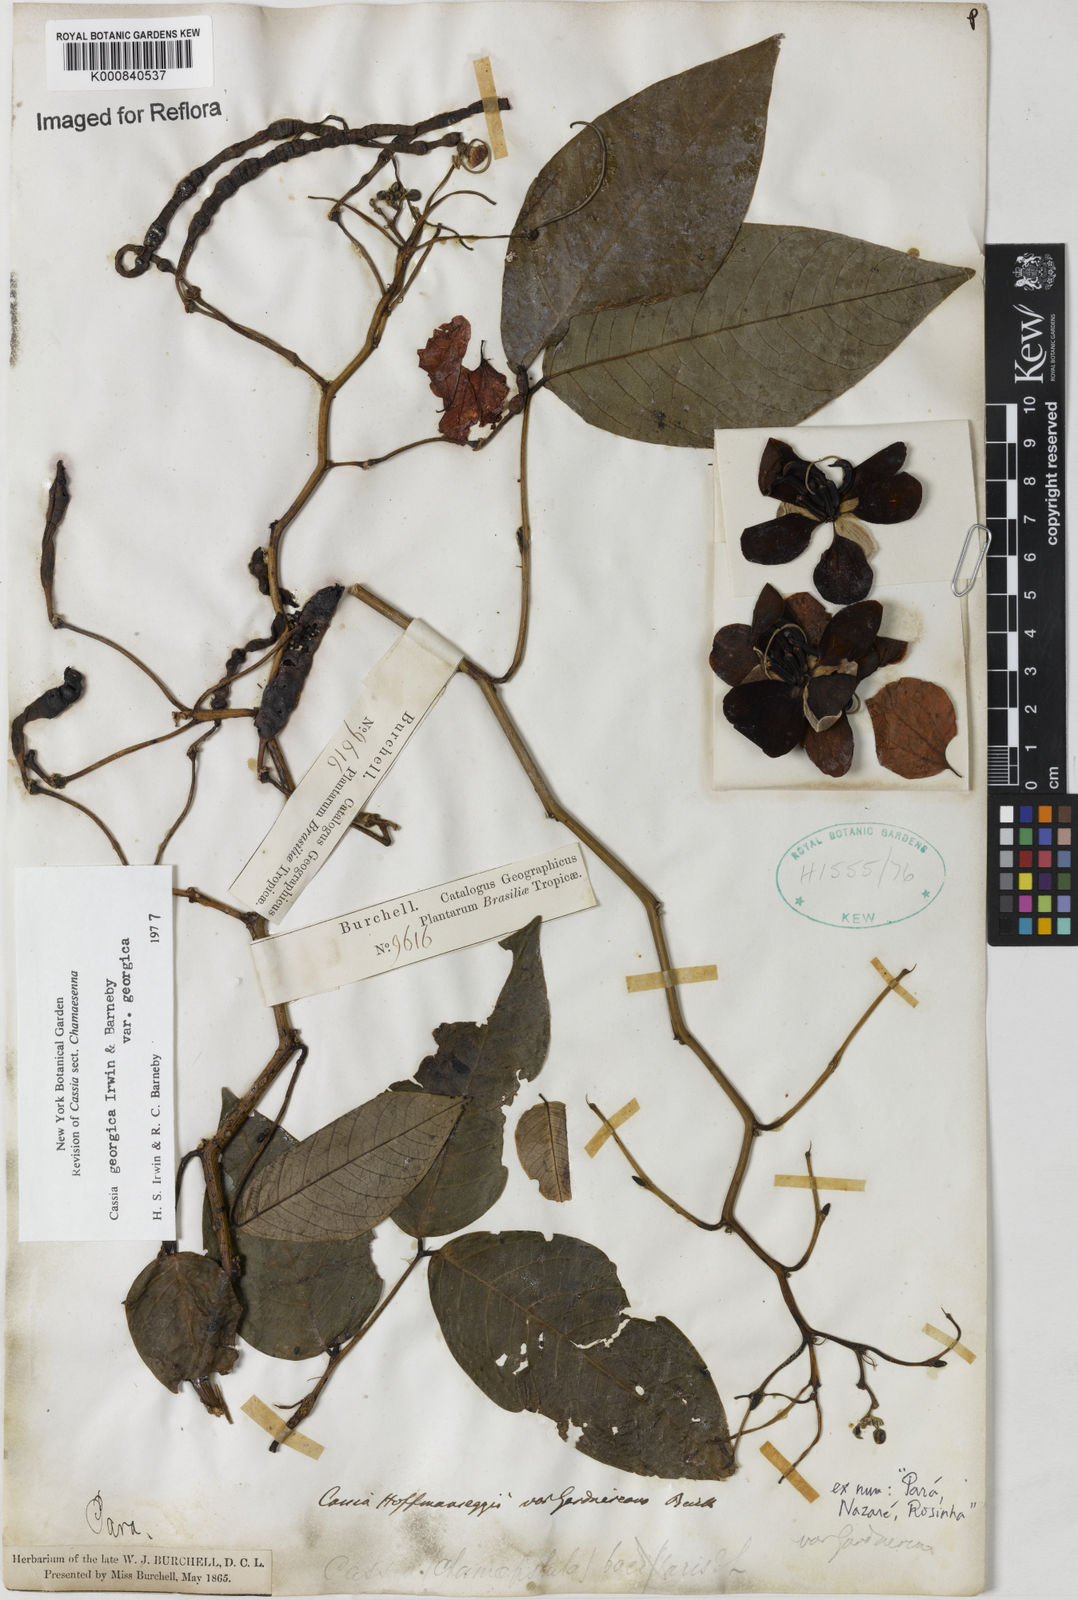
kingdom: Plantae
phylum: Tracheophyta
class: Magnoliopsida
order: Fabales
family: Fabaceae
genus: Senna
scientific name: Senna georgica
